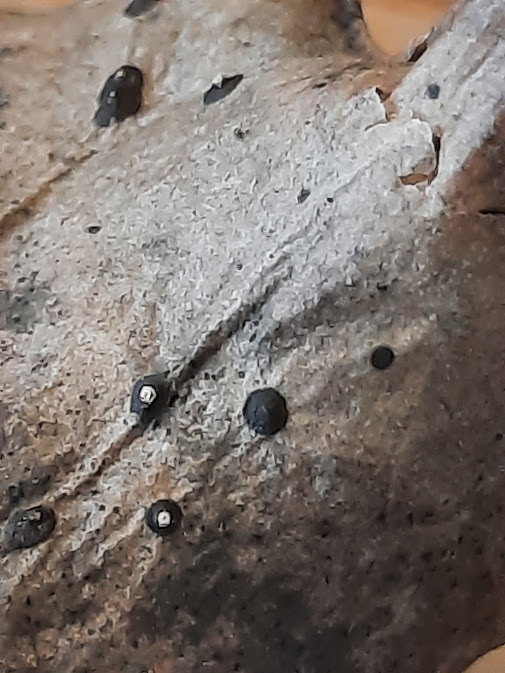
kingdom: Fungi
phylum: Ascomycota
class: Leotiomycetes
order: Phacidiales
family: Phacidiaceae
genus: Phacidium
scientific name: Phacidium lauri
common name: kristtorn-tandskive
